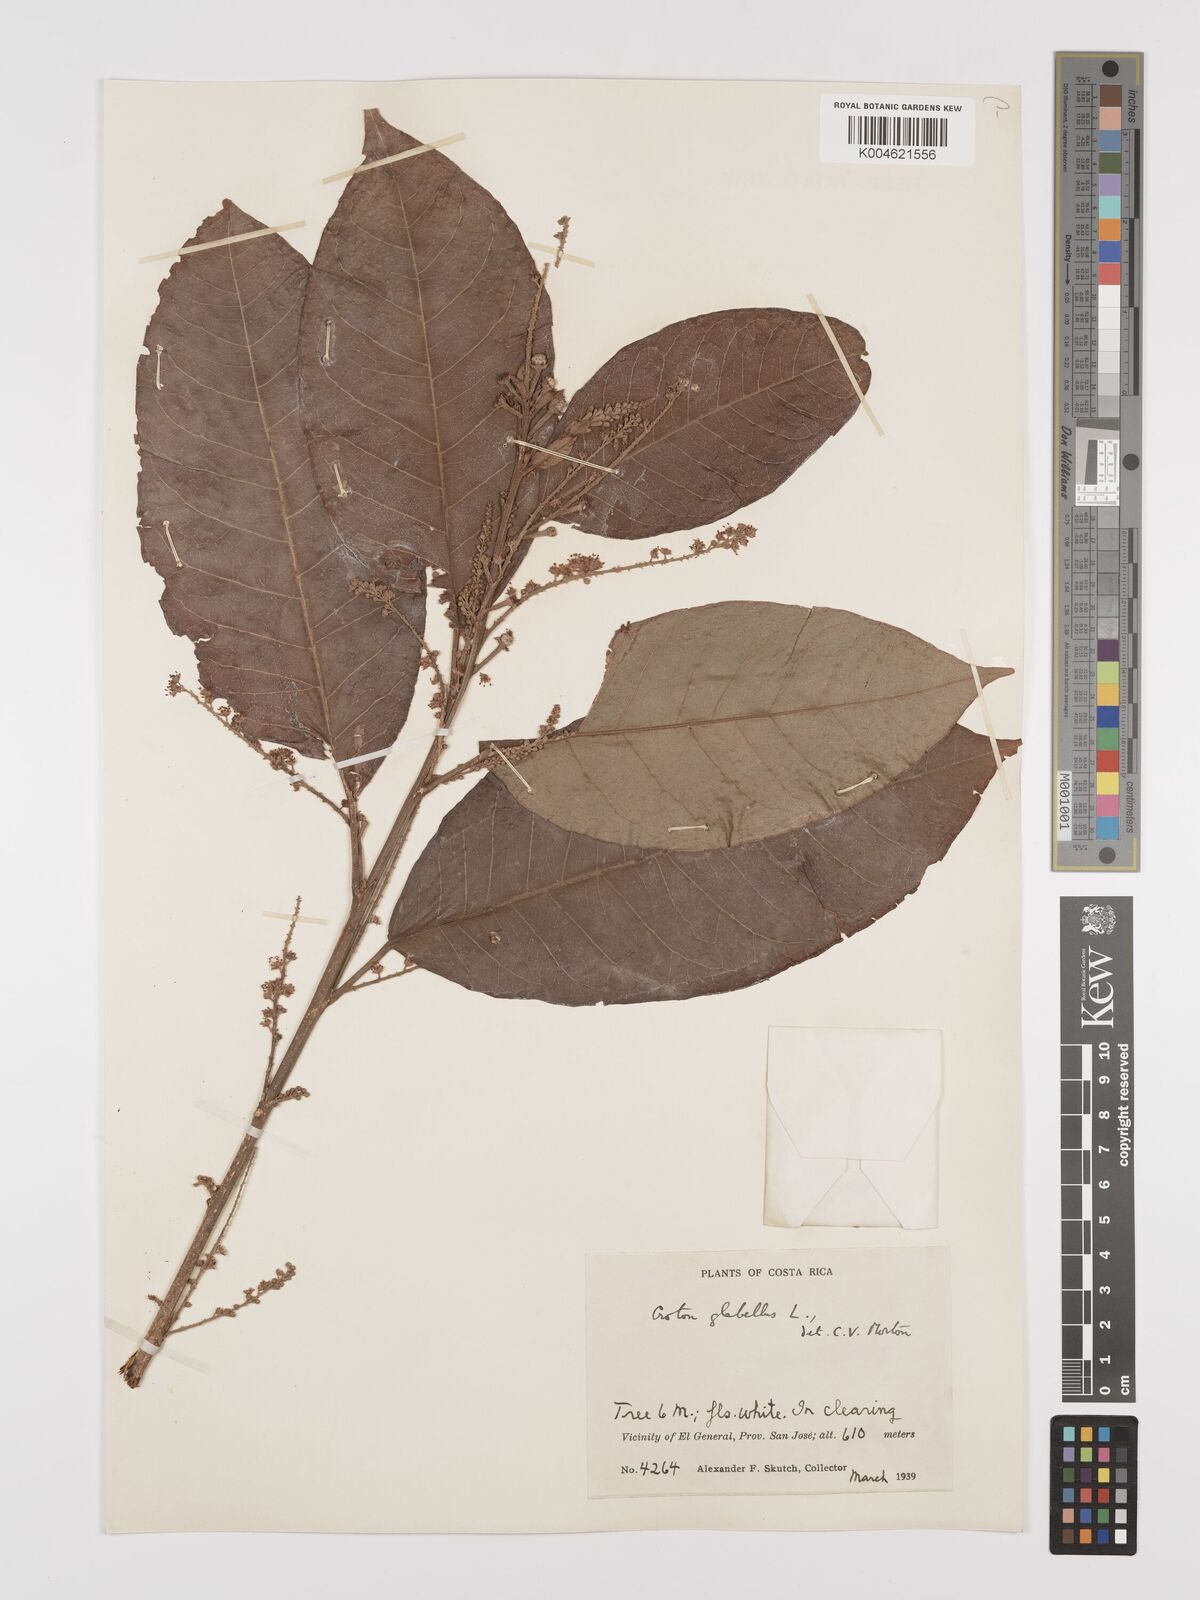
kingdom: Plantae
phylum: Tracheophyta
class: Magnoliopsida
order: Malpighiales
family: Euphorbiaceae
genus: Croton
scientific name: Croton glabellus
